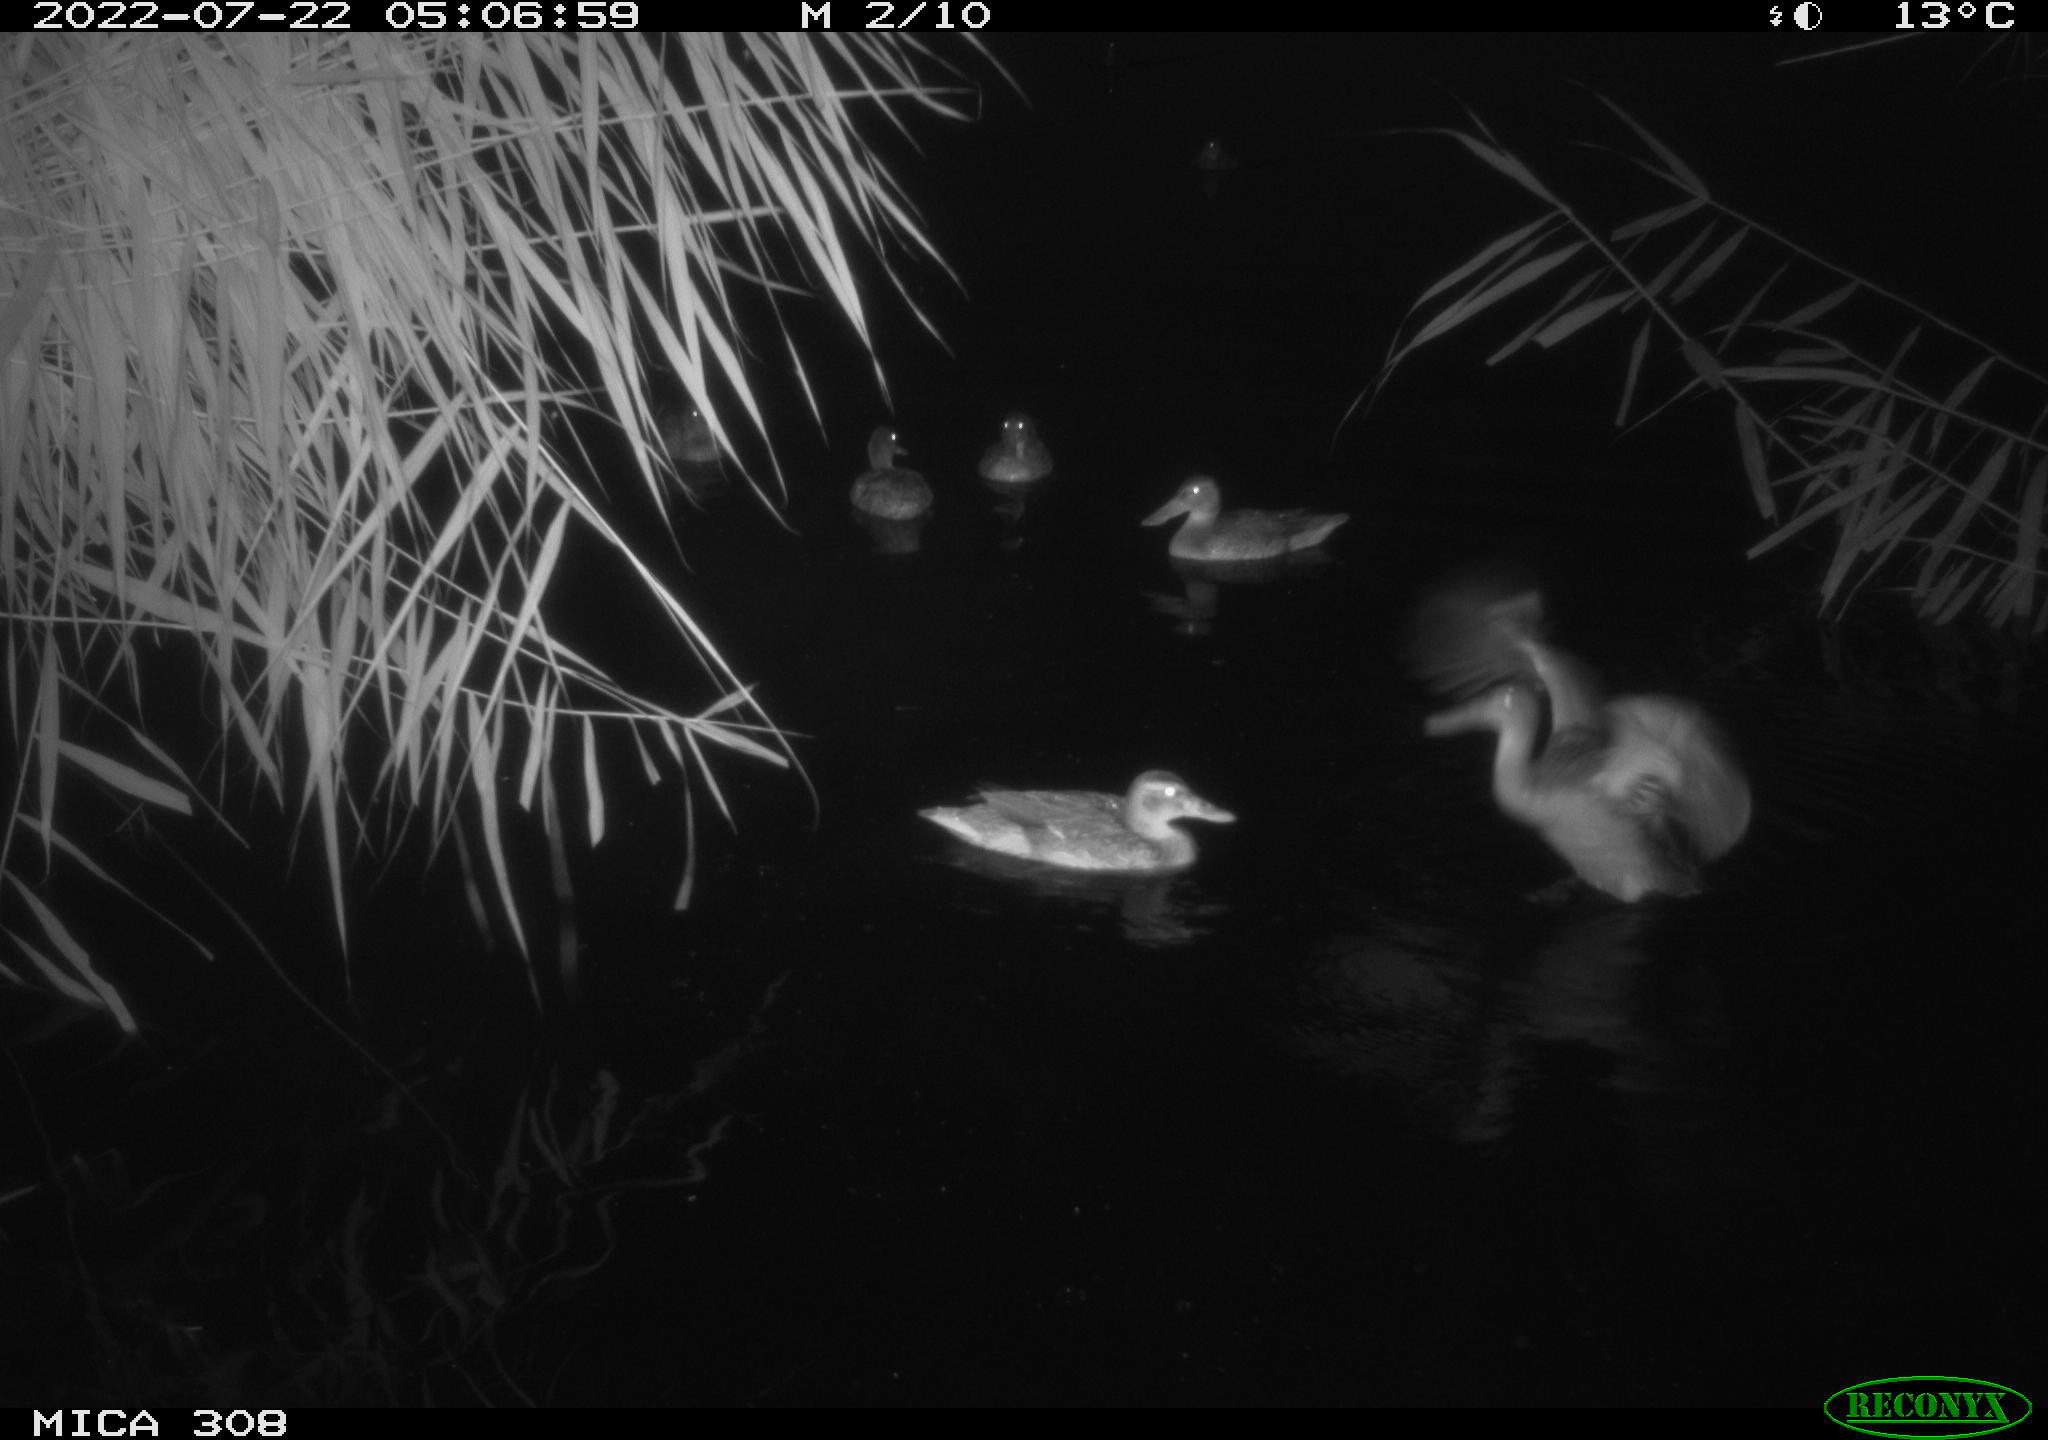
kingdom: Animalia
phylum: Chordata
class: Aves
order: Anseriformes
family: Anatidae
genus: Anas
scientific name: Anas platyrhynchos
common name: Mallard
